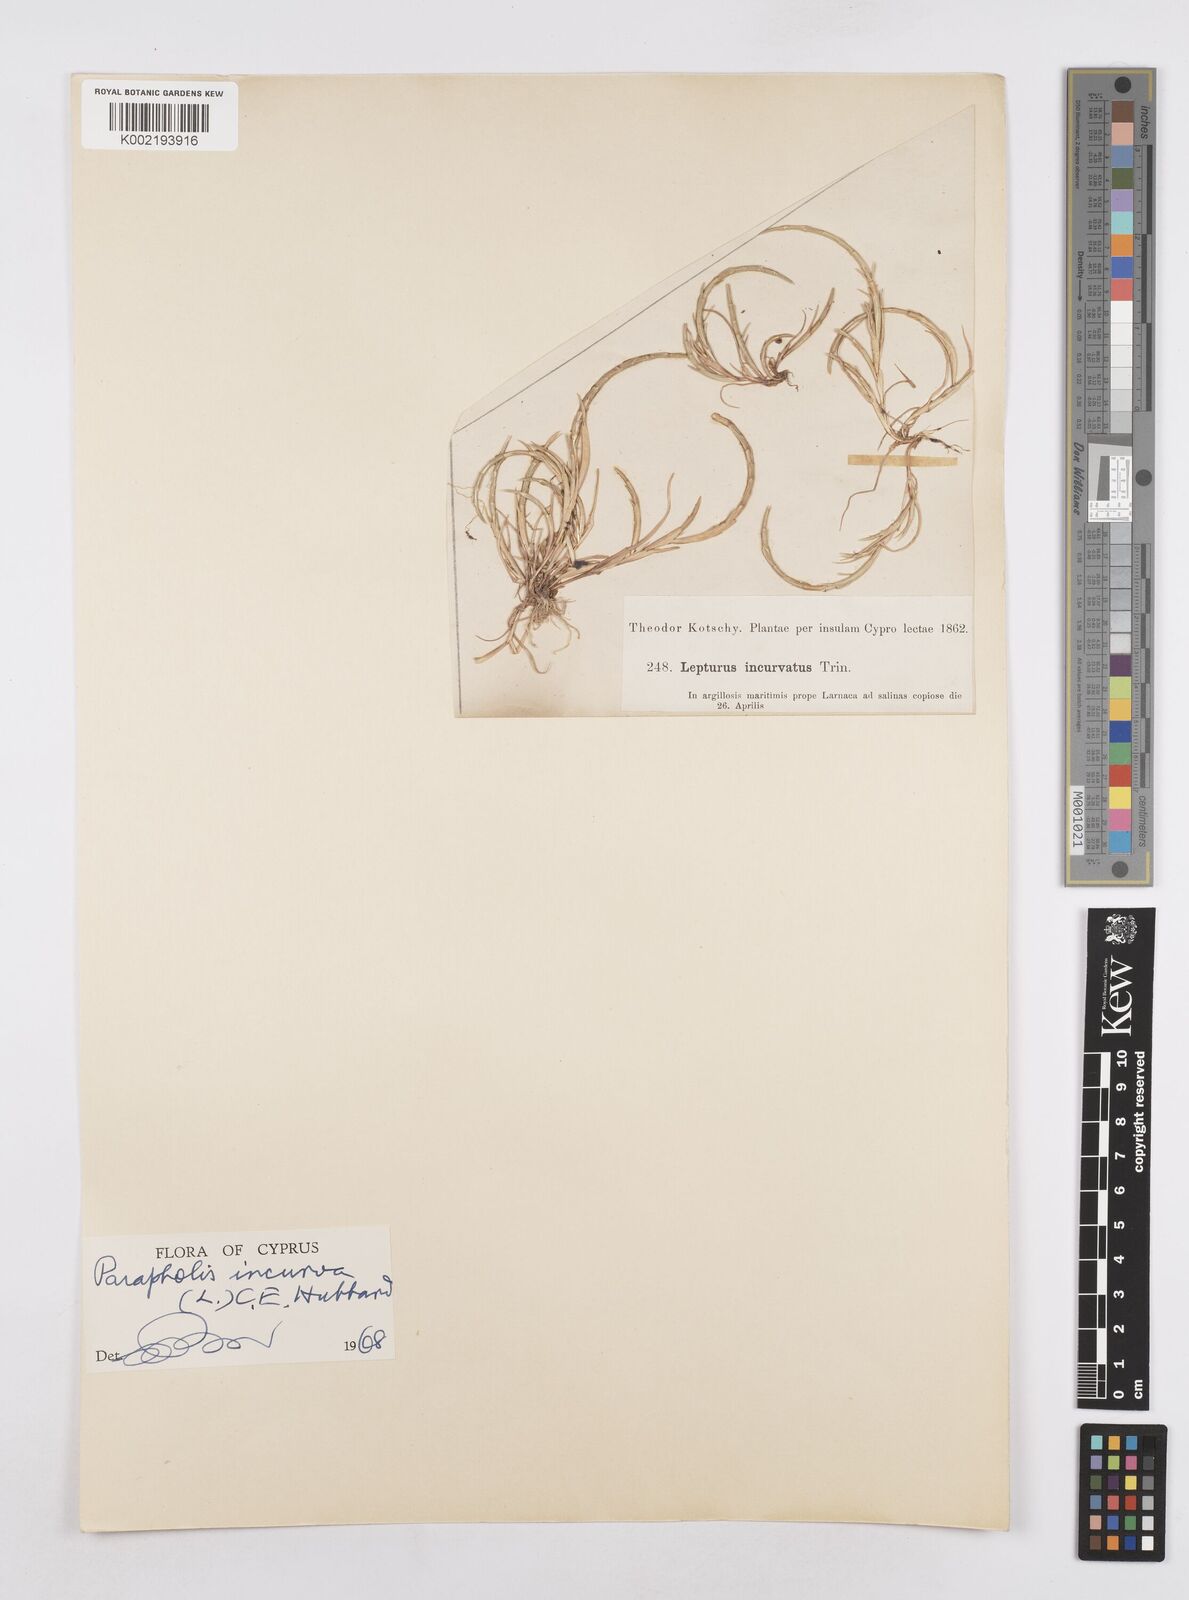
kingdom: Plantae
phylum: Tracheophyta
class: Liliopsida
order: Poales
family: Poaceae
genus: Parapholis
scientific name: Parapholis incurva
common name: Curved sicklegrass
